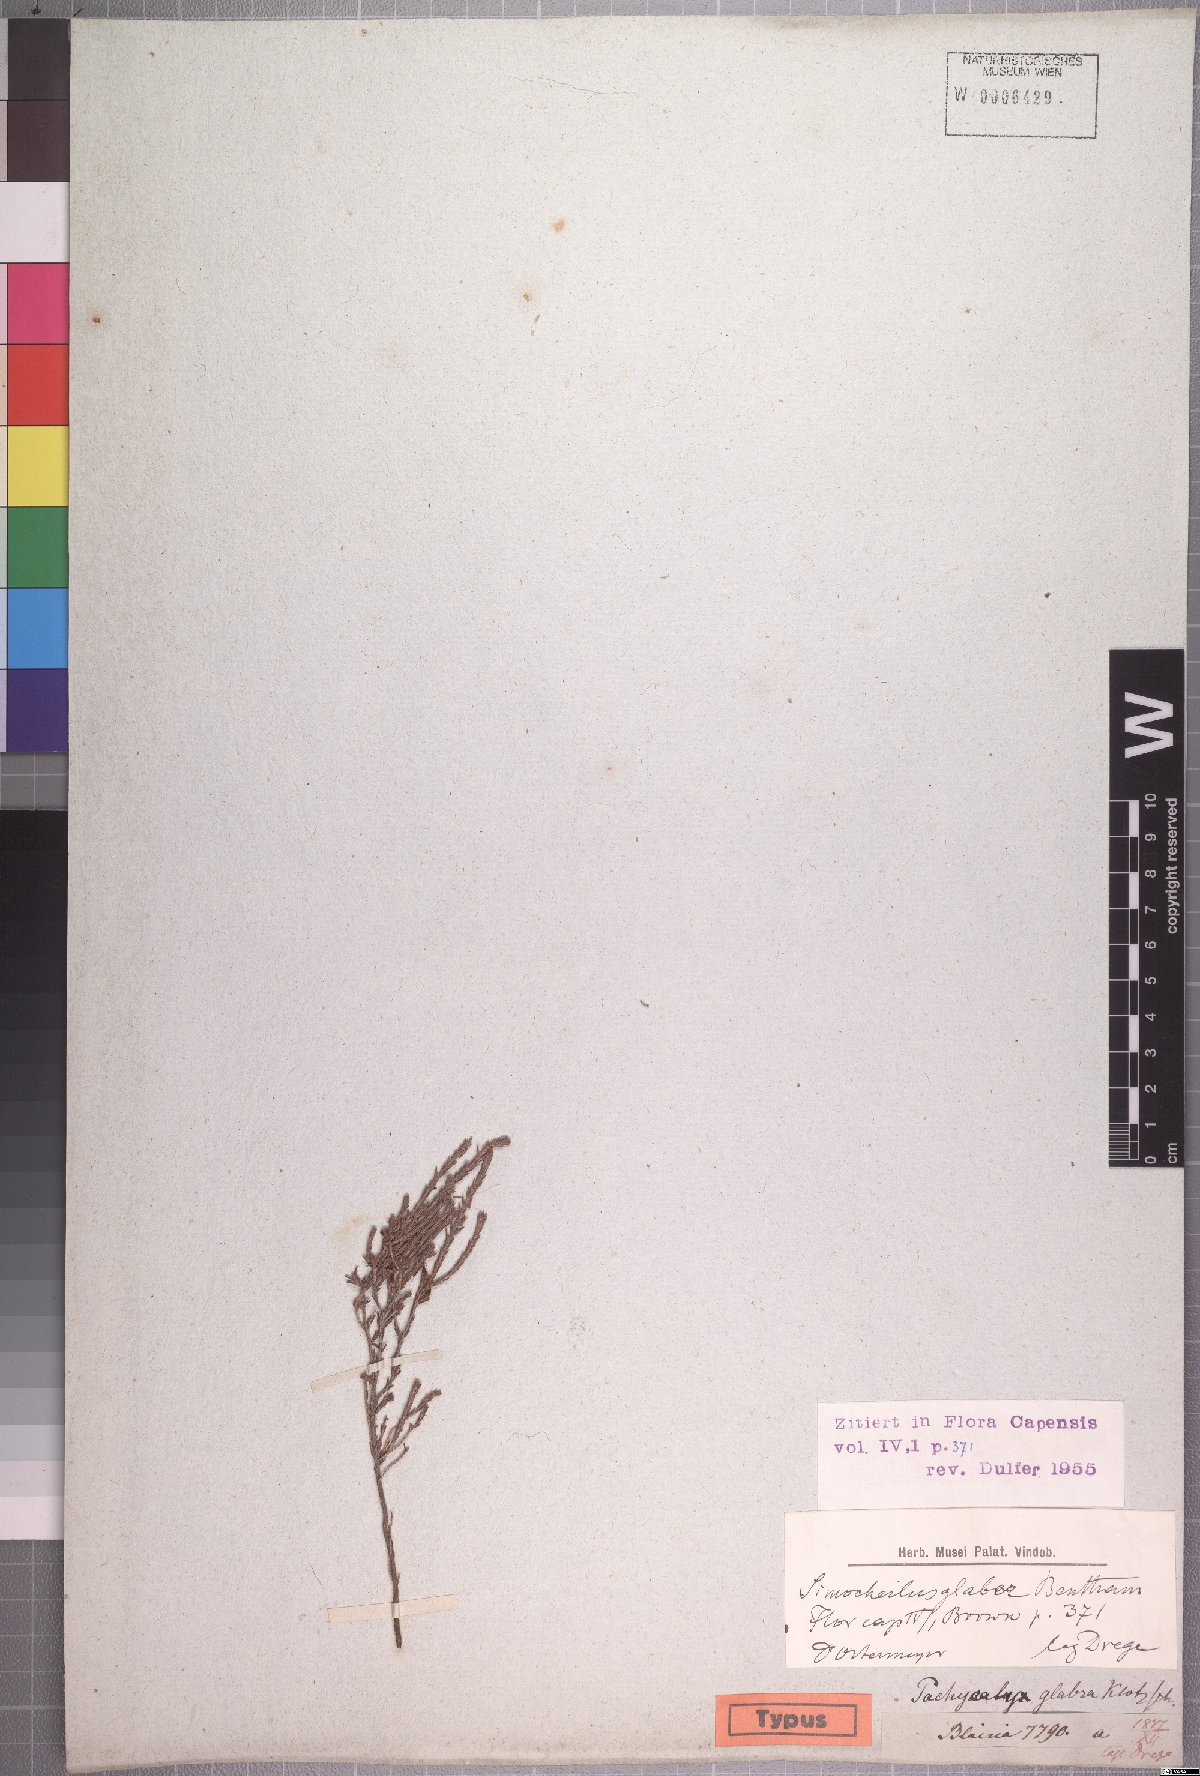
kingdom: Plantae
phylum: Tracheophyta
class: Magnoliopsida
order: Ericales
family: Ericaceae
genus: Erica
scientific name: Erica glabra
